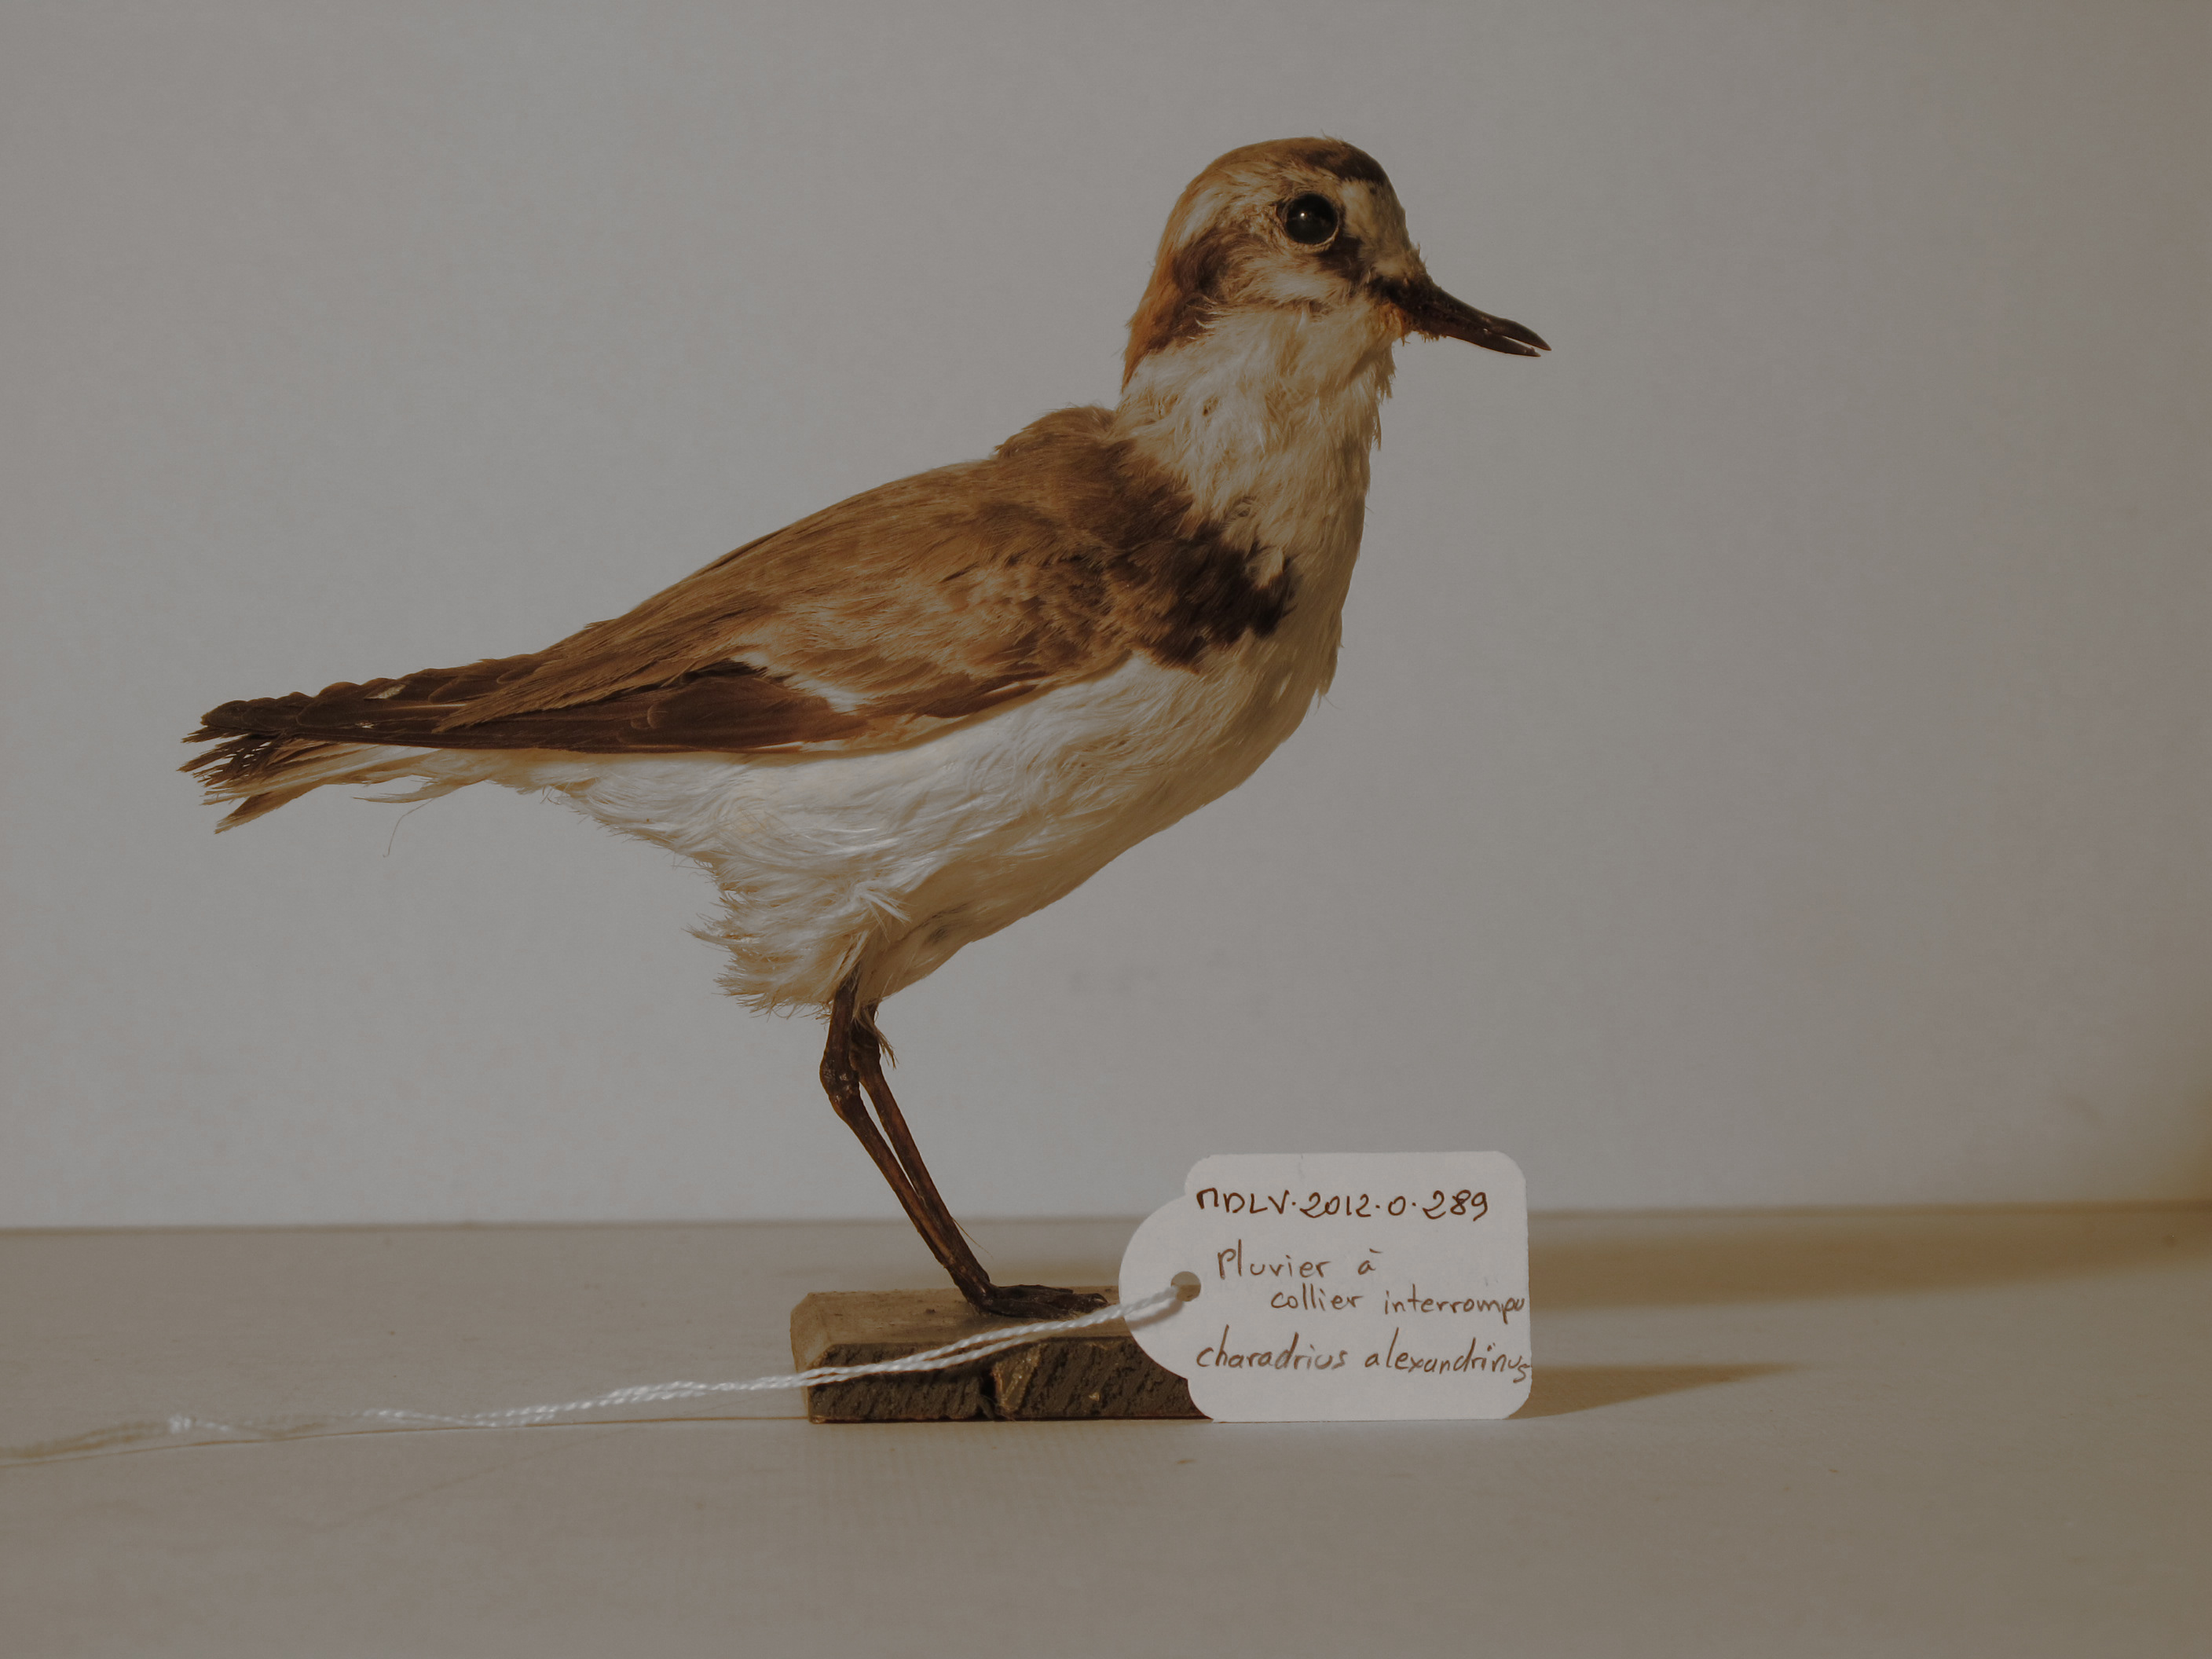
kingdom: Animalia
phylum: Chordata
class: Aves
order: Charadriiformes
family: Charadriidae
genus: Charadrius
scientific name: Charadrius alexandrinus
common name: Kentish Plover
